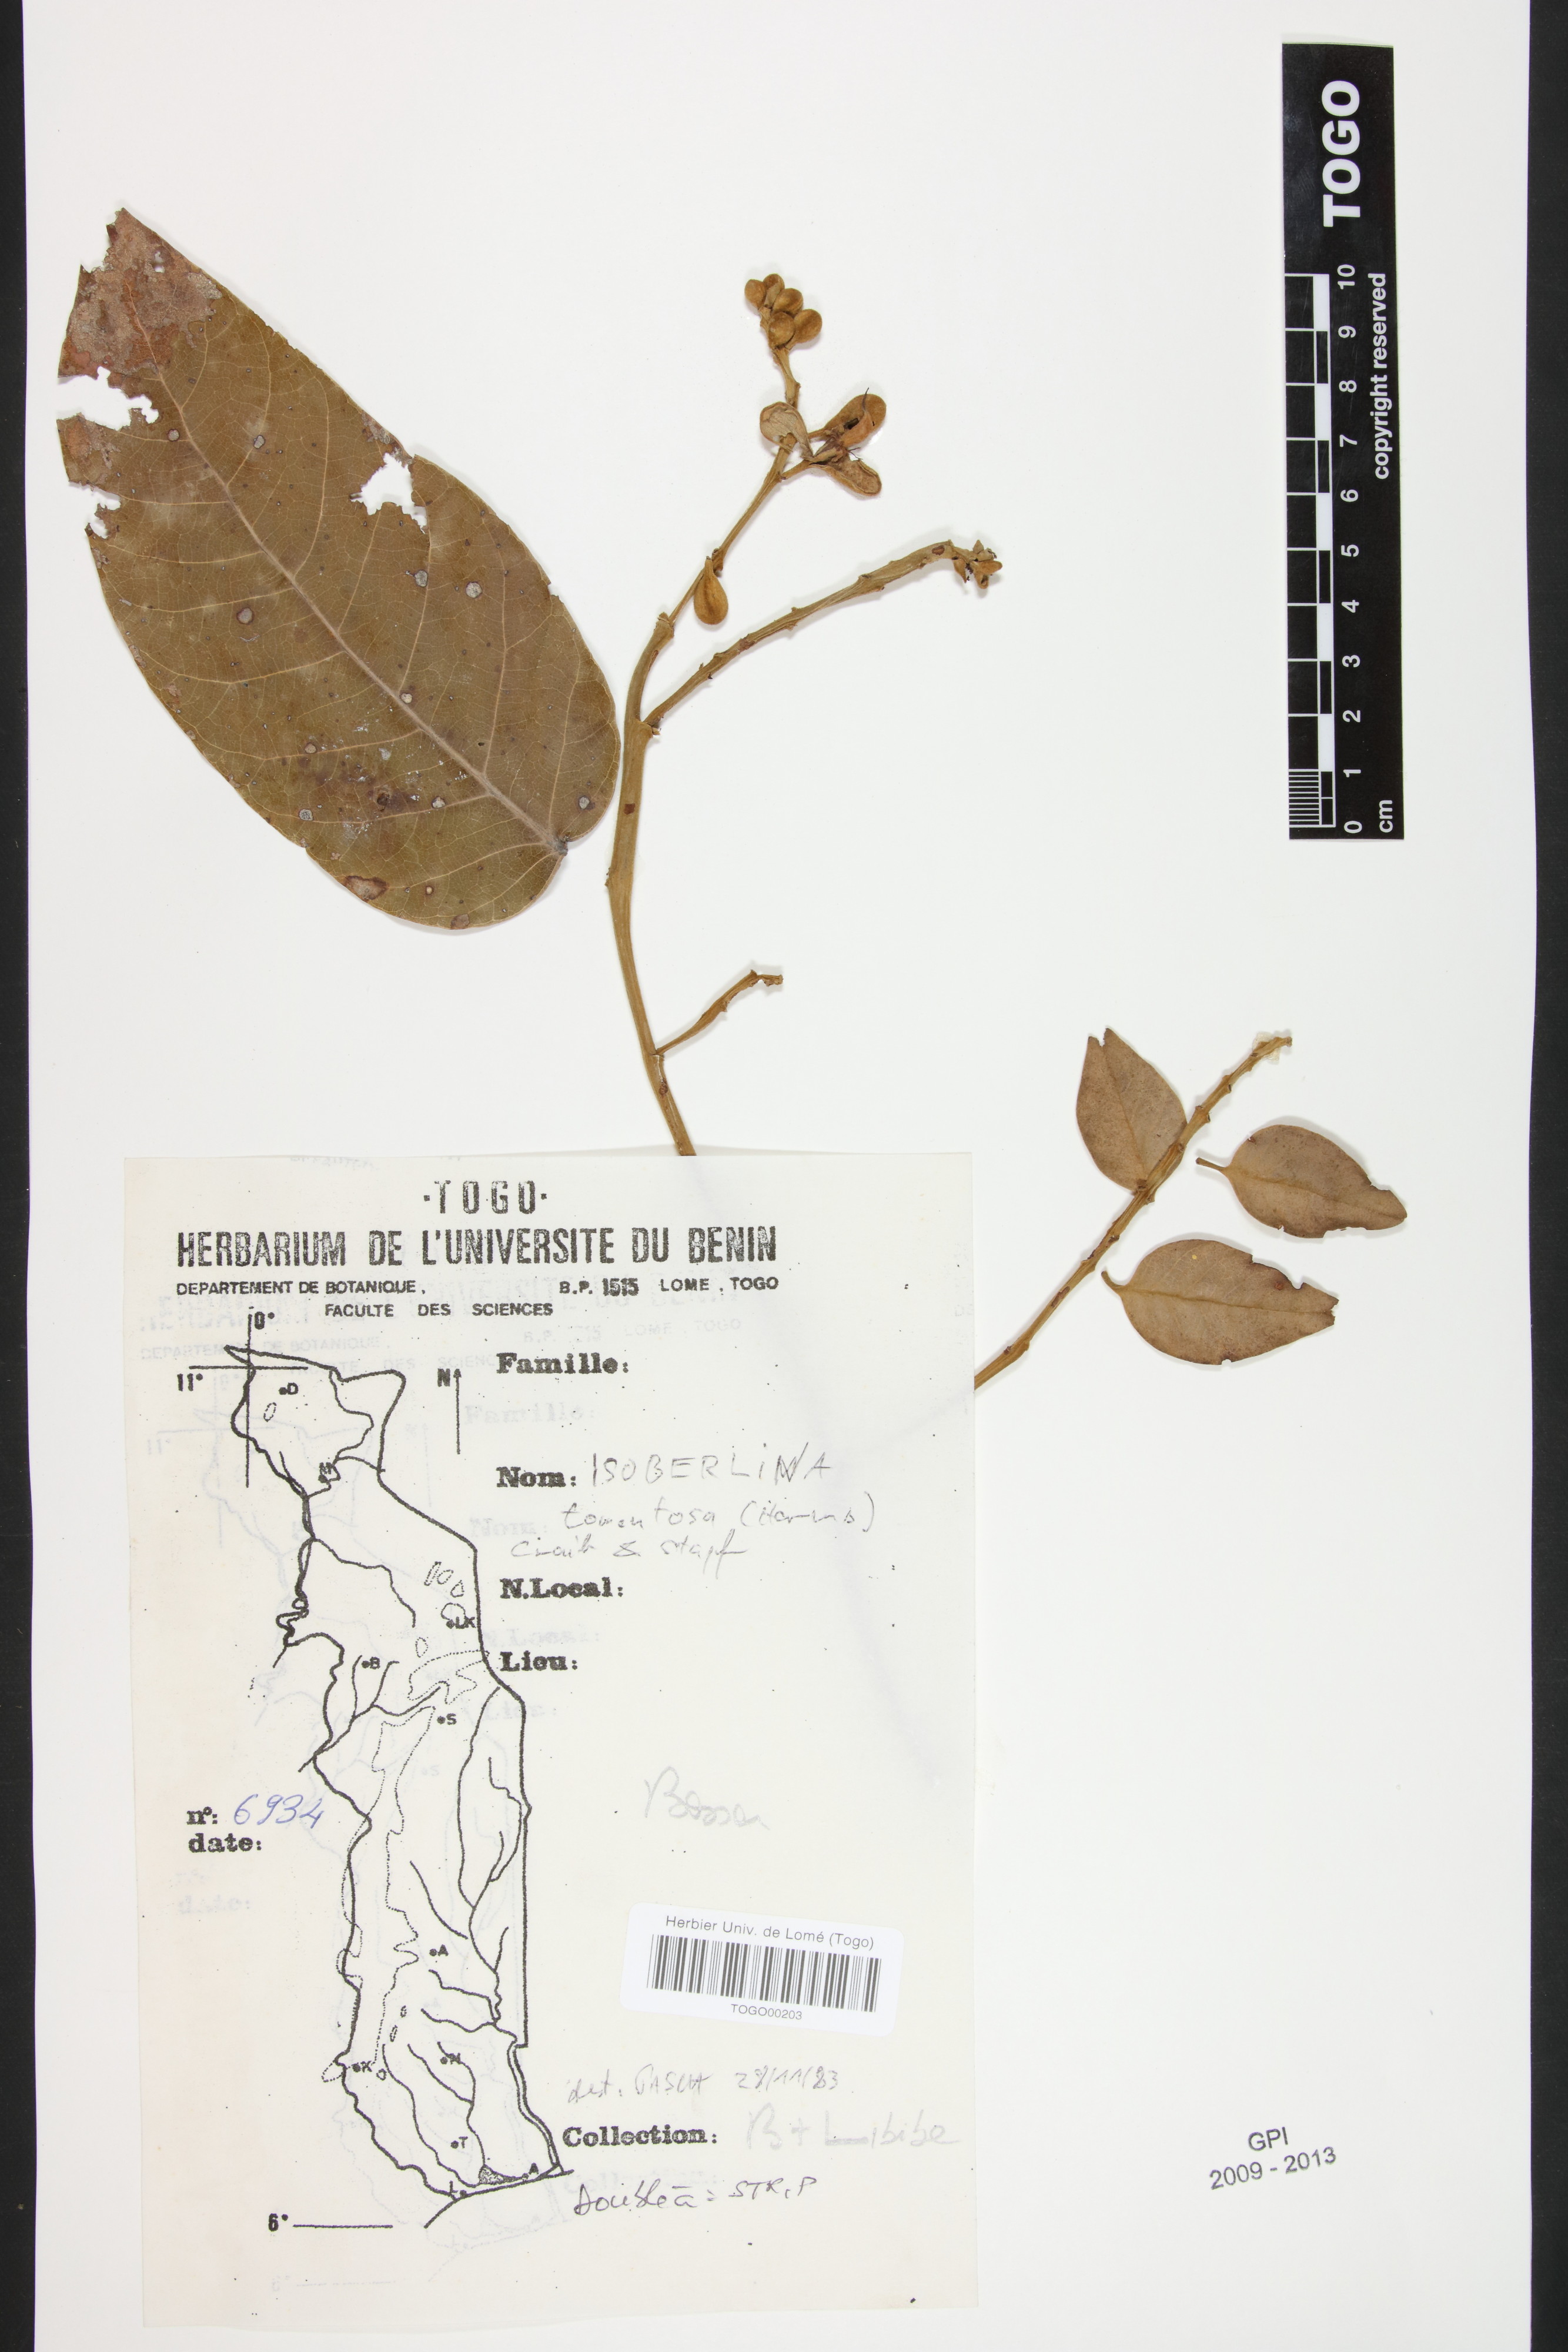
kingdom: Plantae
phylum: Tracheophyta
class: Magnoliopsida
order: Fabales
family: Fabaceae
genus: Isoberlinia
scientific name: Isoberlinia tomentosa
